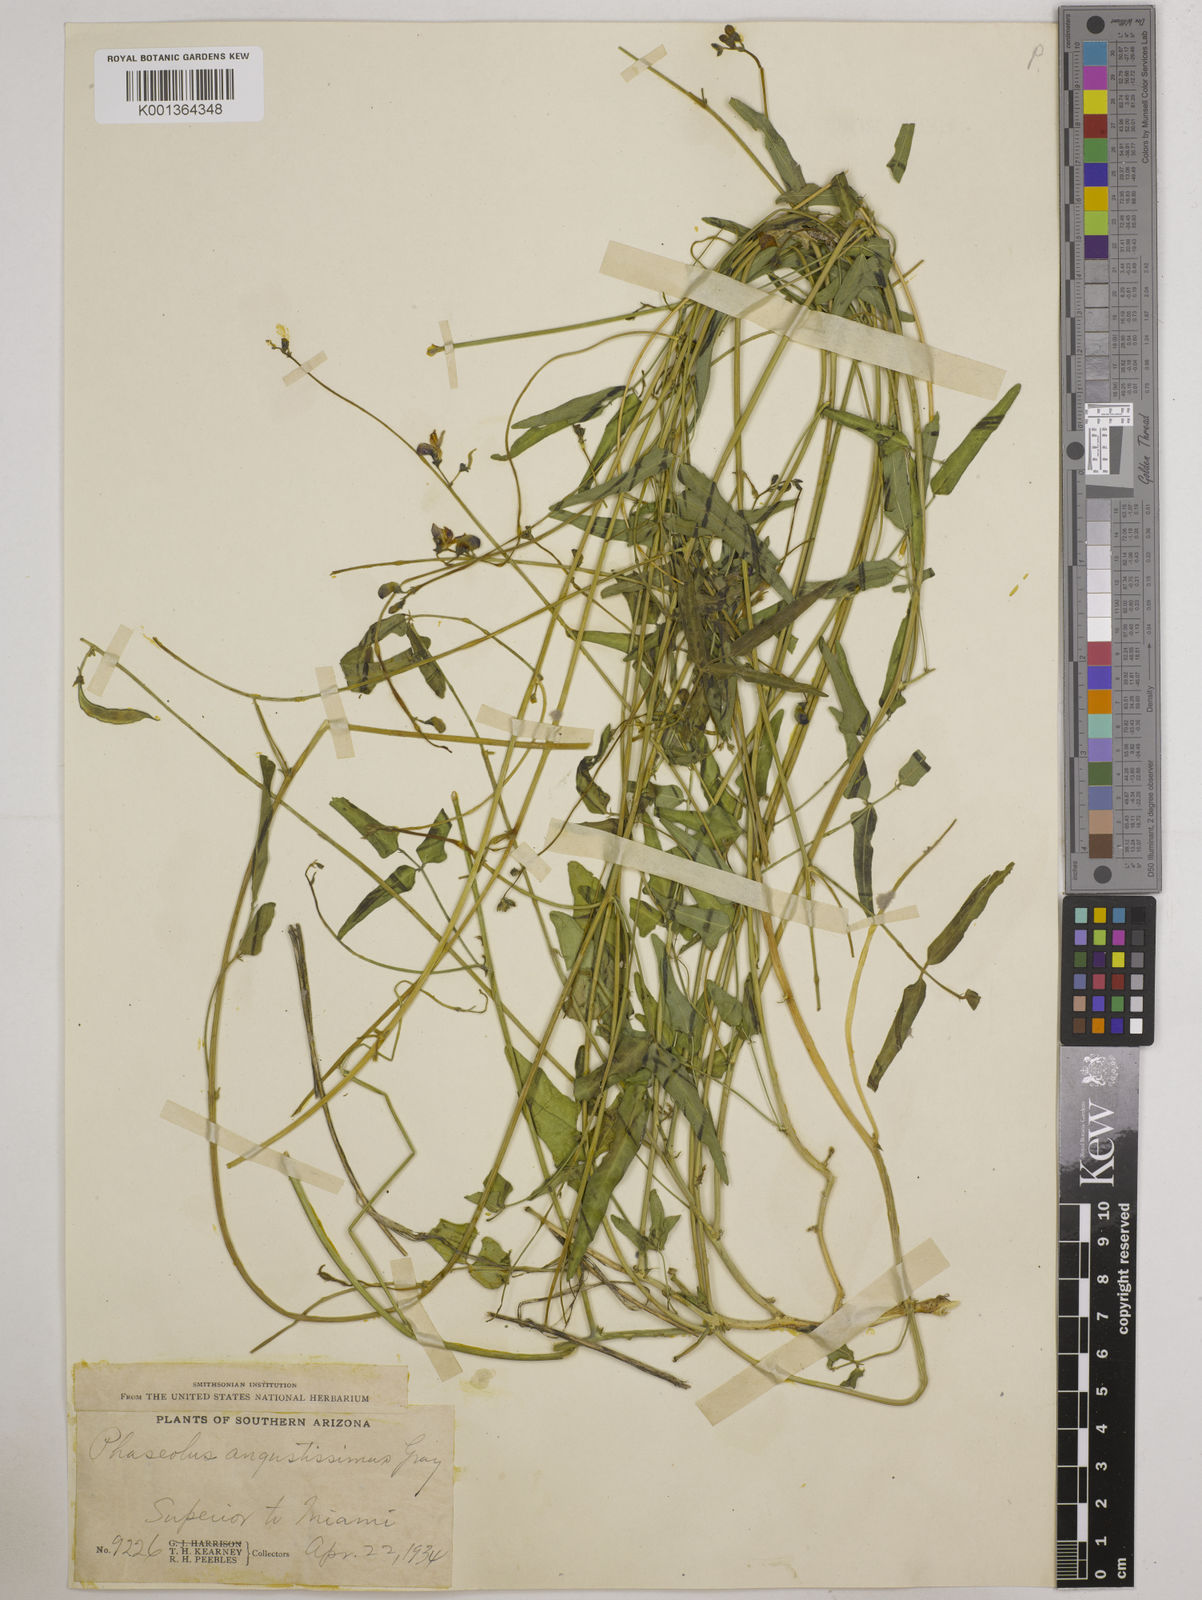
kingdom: Plantae
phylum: Tracheophyta
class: Magnoliopsida
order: Fabales
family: Fabaceae
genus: Phaseolus
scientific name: Phaseolus angustissimus
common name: Slimleaf bean
